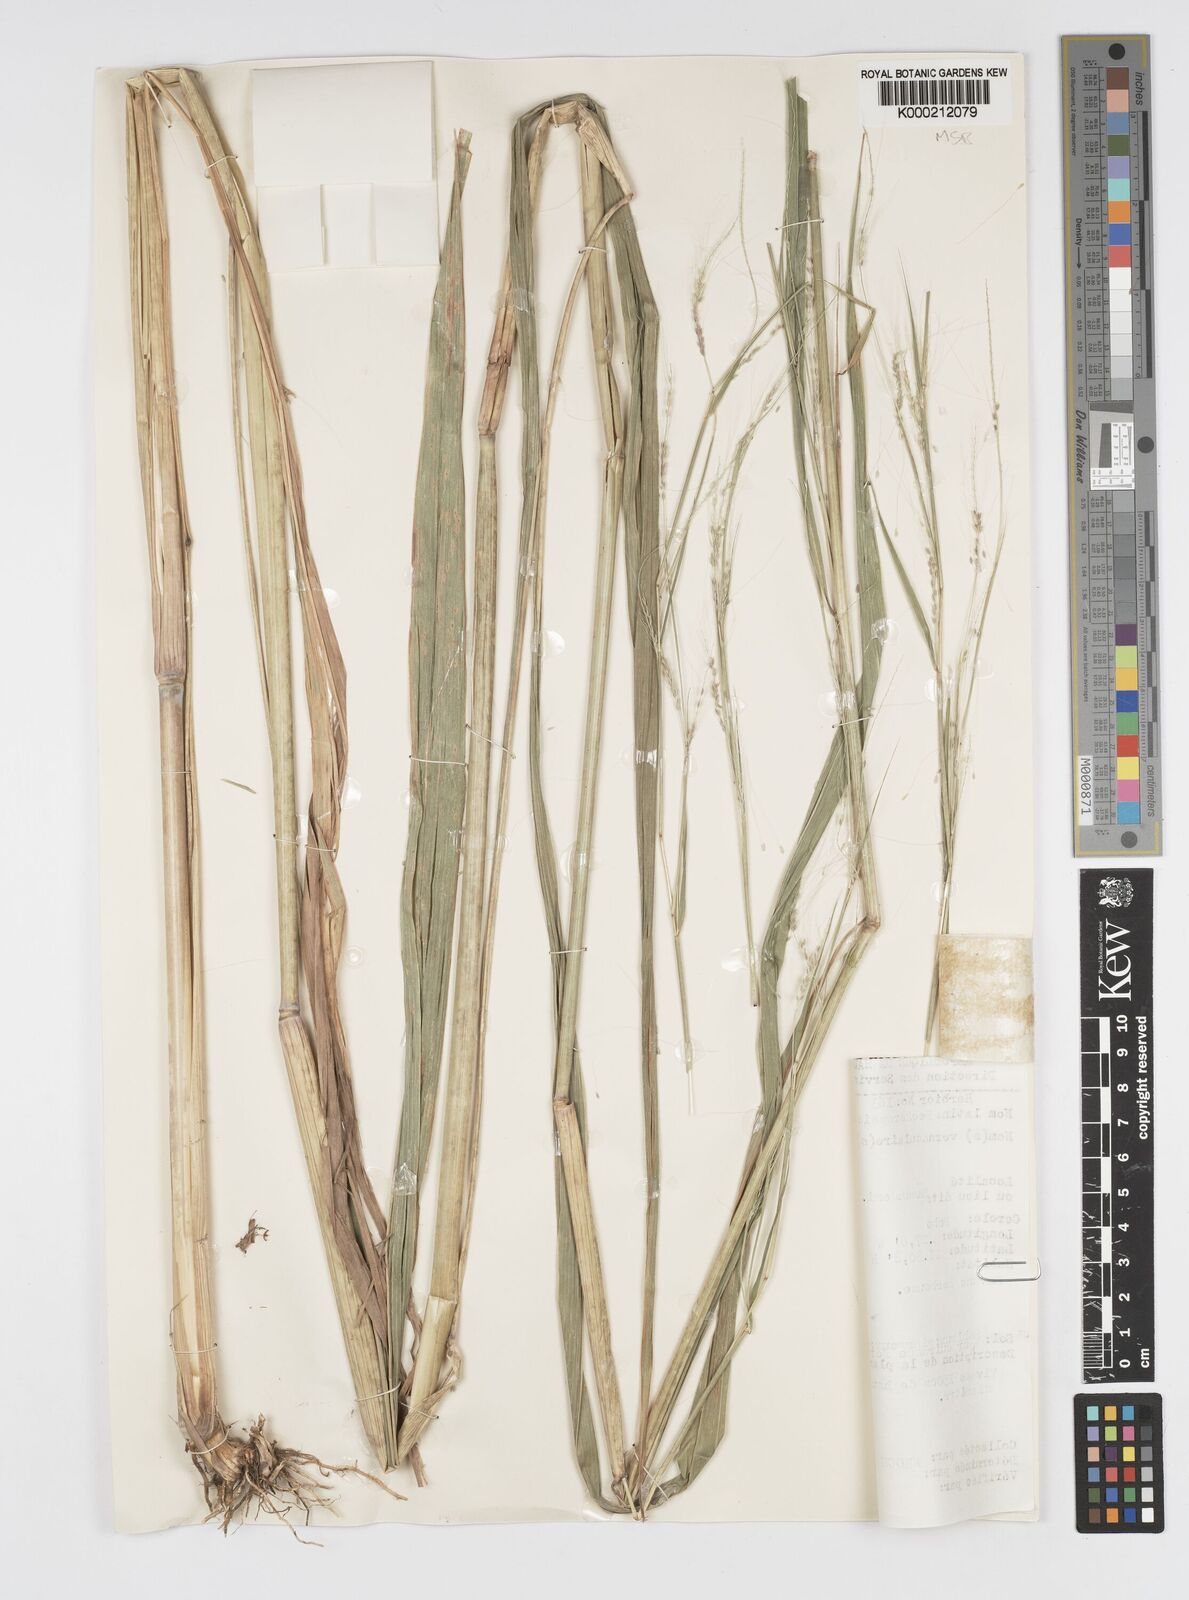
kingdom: Plantae
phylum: Tracheophyta
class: Liliopsida
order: Poales
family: Poaceae
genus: Cenchrus
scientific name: Cenchrus unisetus
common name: Natal grass
